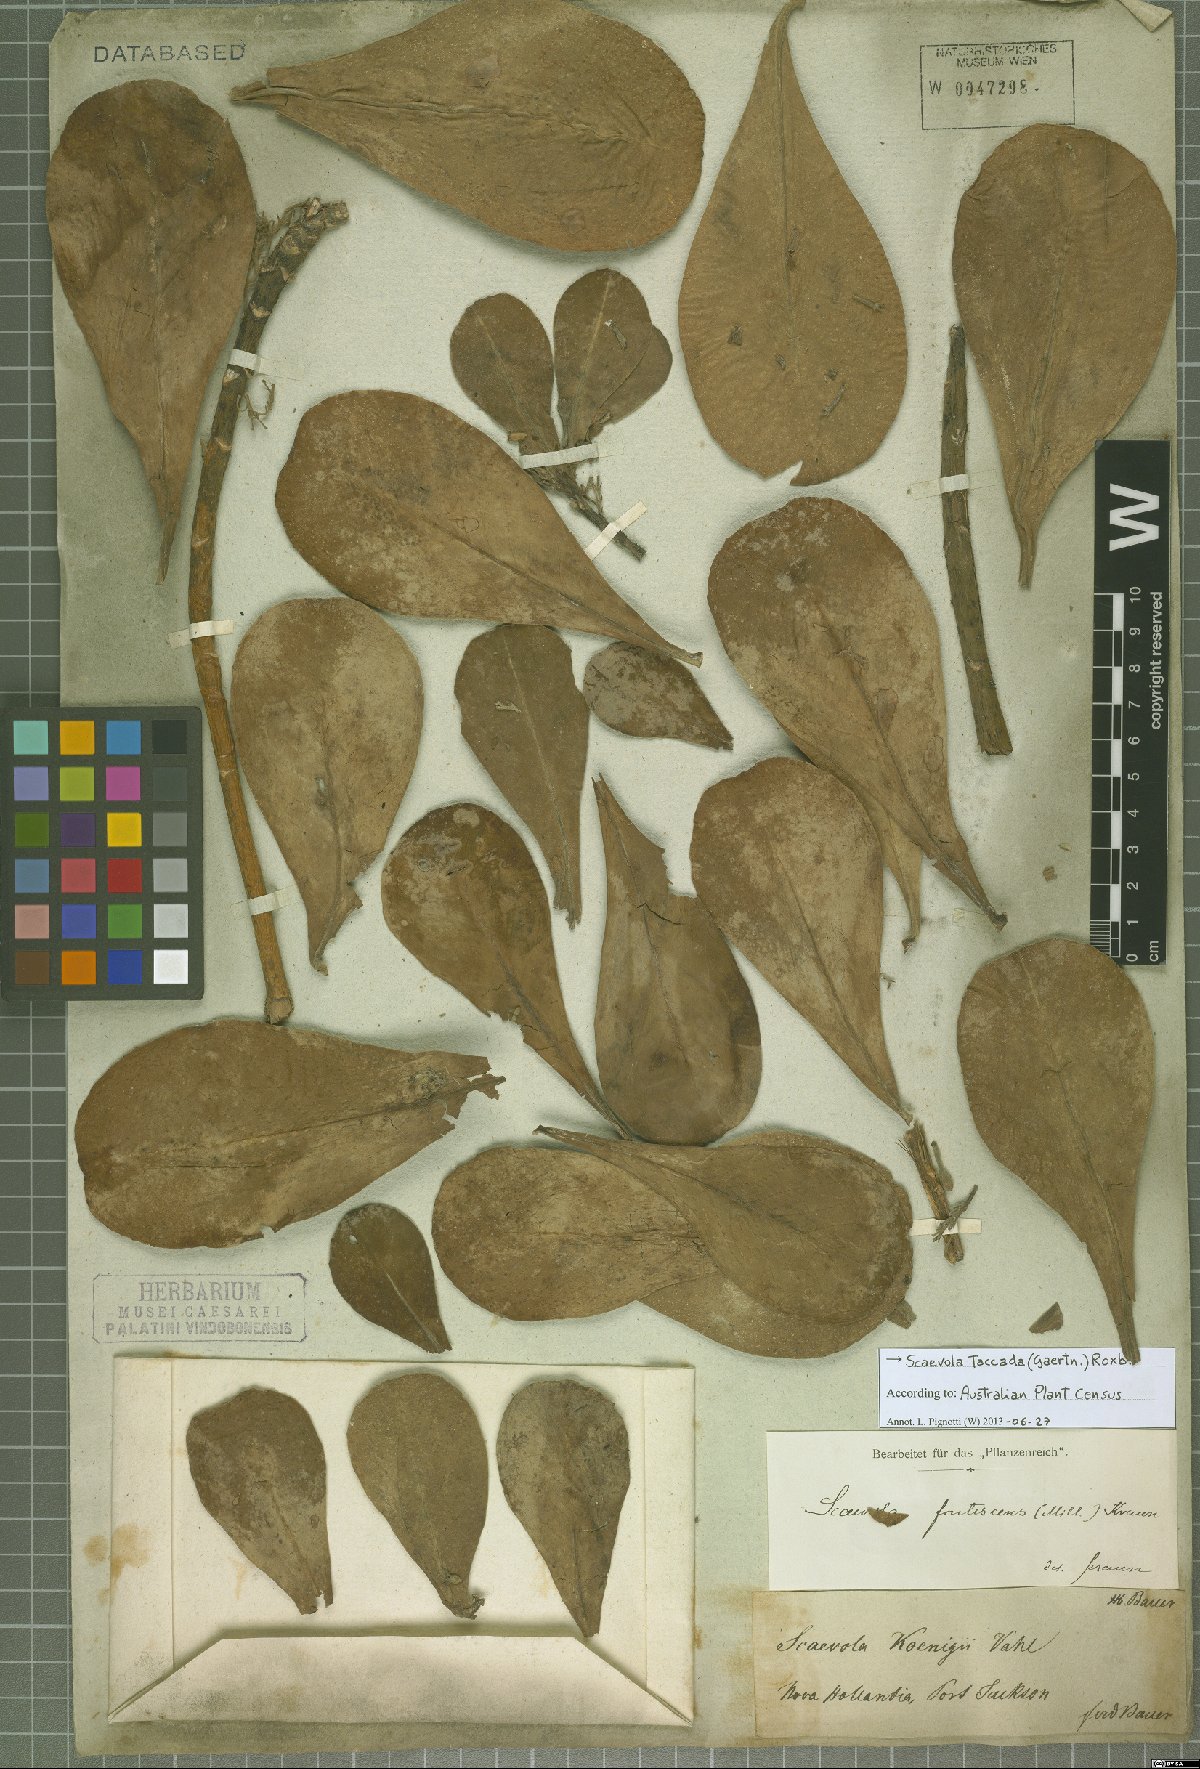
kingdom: Plantae
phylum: Tracheophyta
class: Magnoliopsida
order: Asterales
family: Goodeniaceae
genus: Scaevola
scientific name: Scaevola taccada
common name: Sea lettucetree
